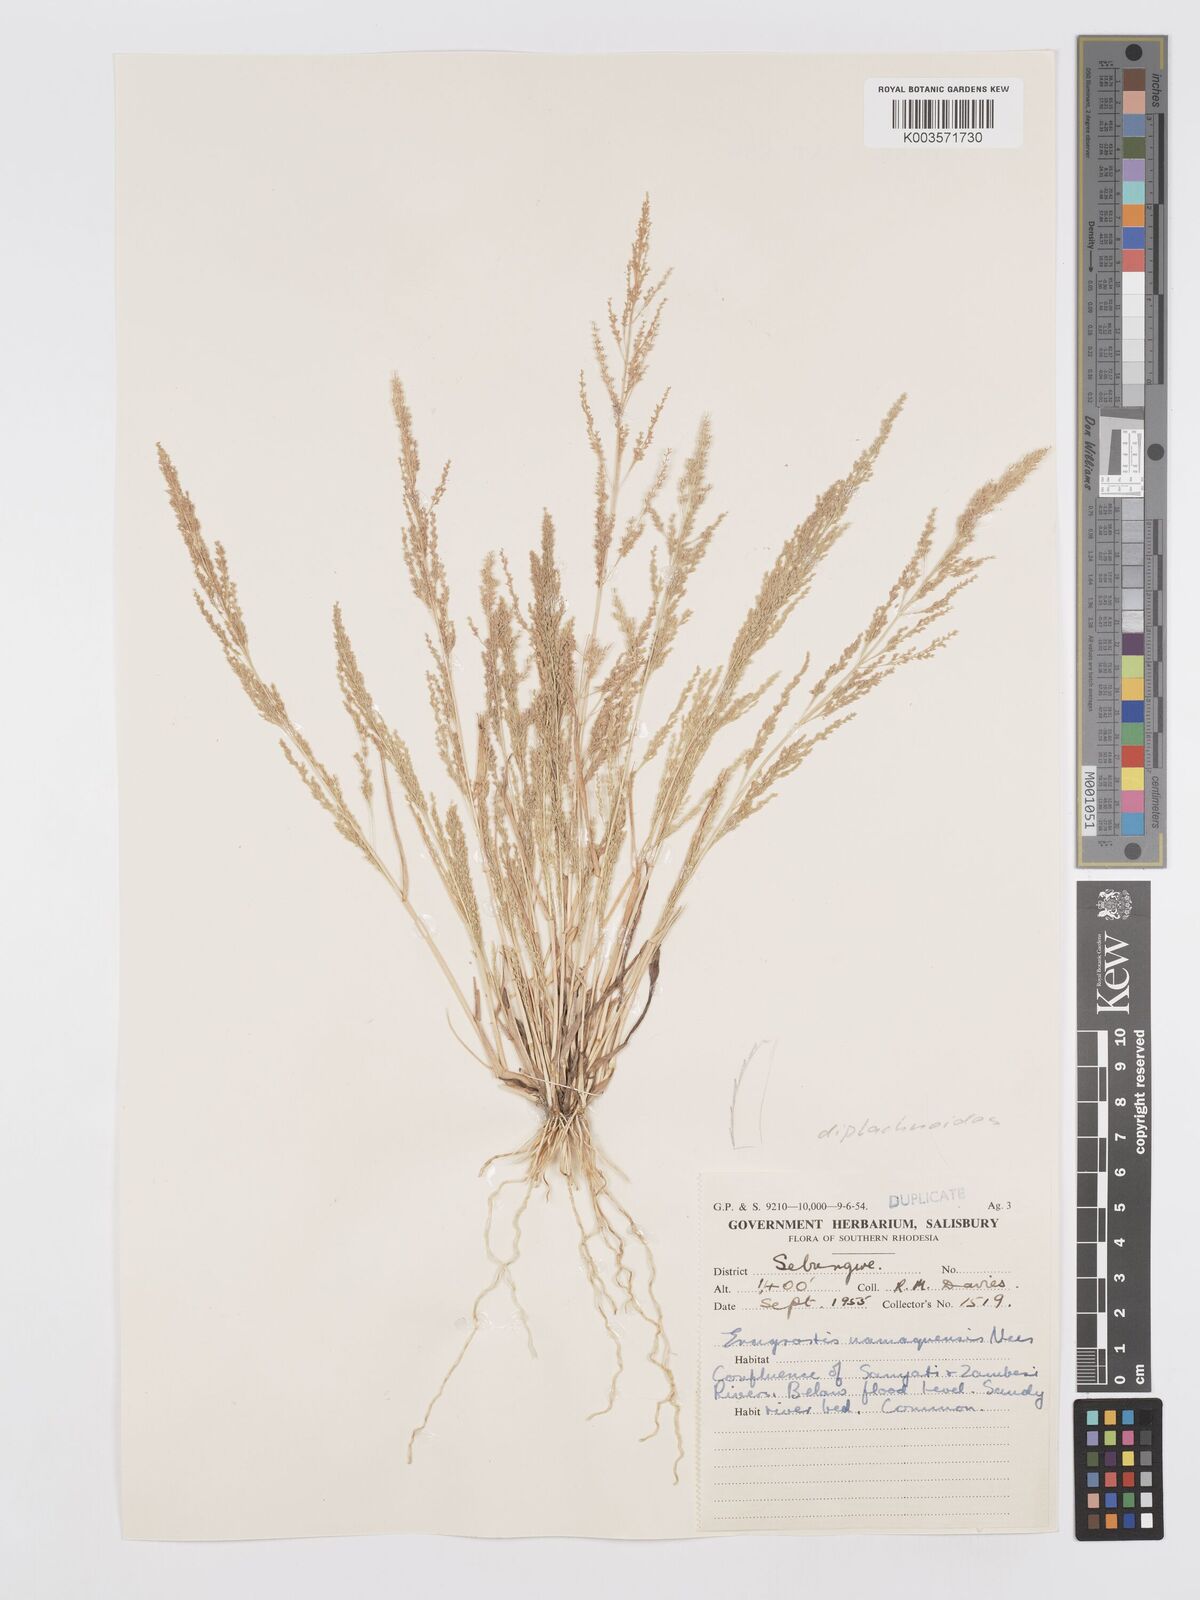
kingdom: Plantae
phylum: Tracheophyta
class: Liliopsida
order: Poales
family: Poaceae
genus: Eragrostis
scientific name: Eragrostis japonica
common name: Pond lovegrass
